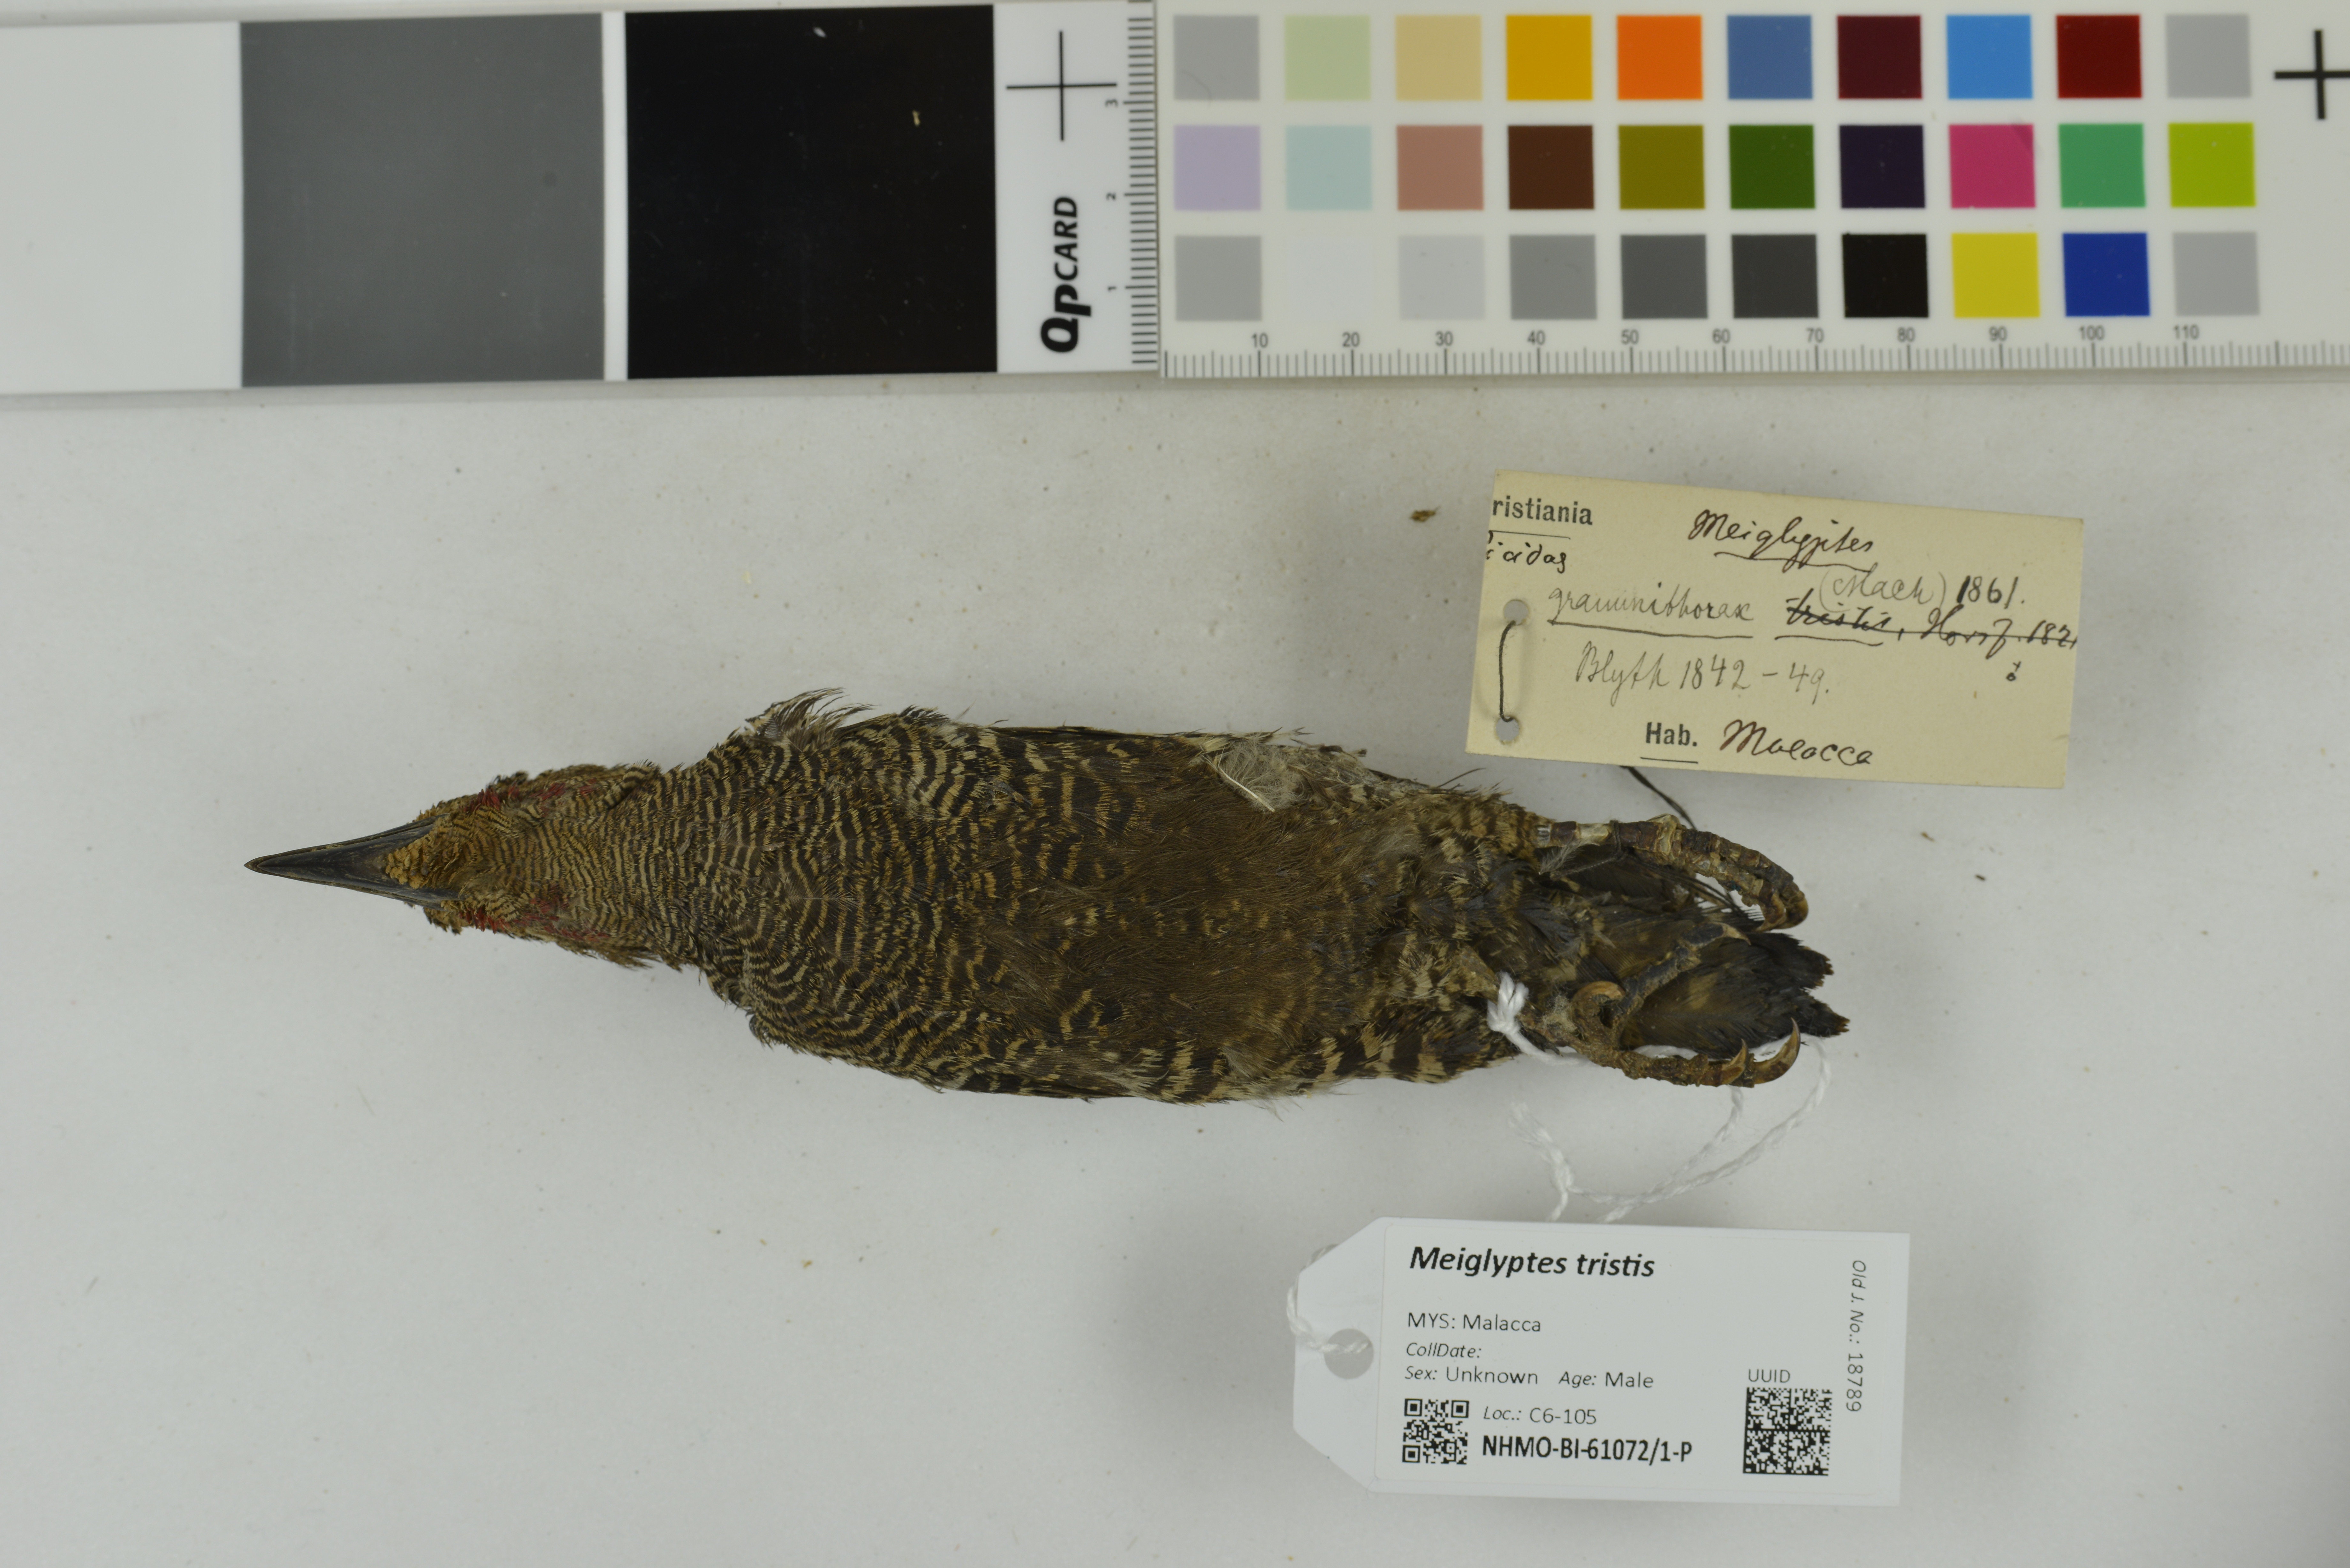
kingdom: Animalia
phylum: Chordata
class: Aves
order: Piciformes
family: Picidae
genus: Meiglyptes
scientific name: Meiglyptes tristis
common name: Buff-rumped woodpecker
